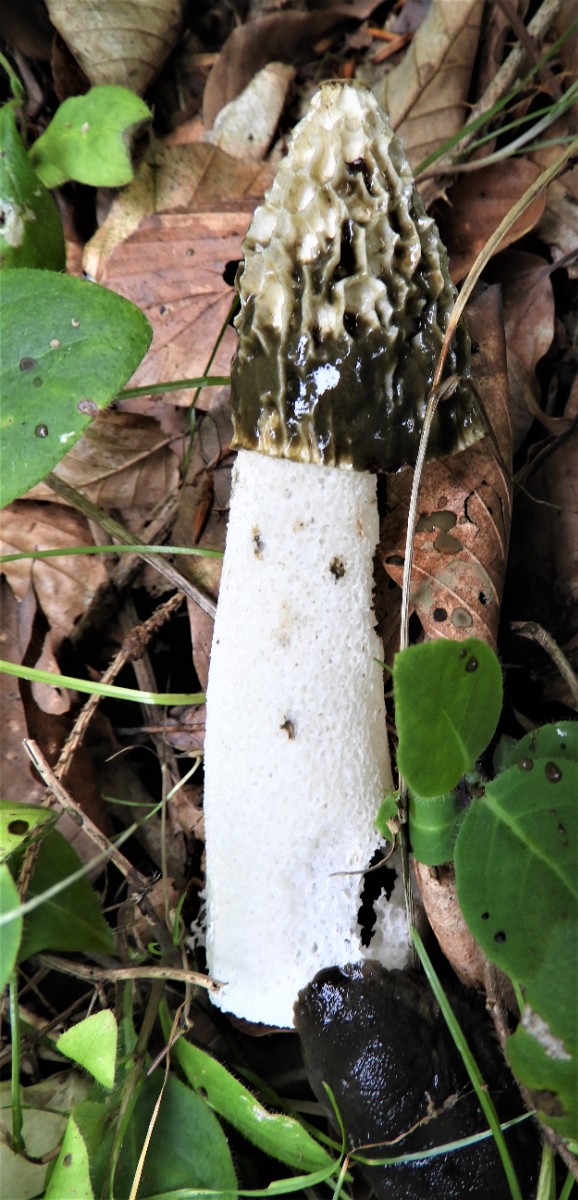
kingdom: Fungi
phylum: Basidiomycota
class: Agaricomycetes
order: Phallales
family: Phallaceae
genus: Phallus
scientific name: Phallus impudicus
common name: almindelig stinksvamp
